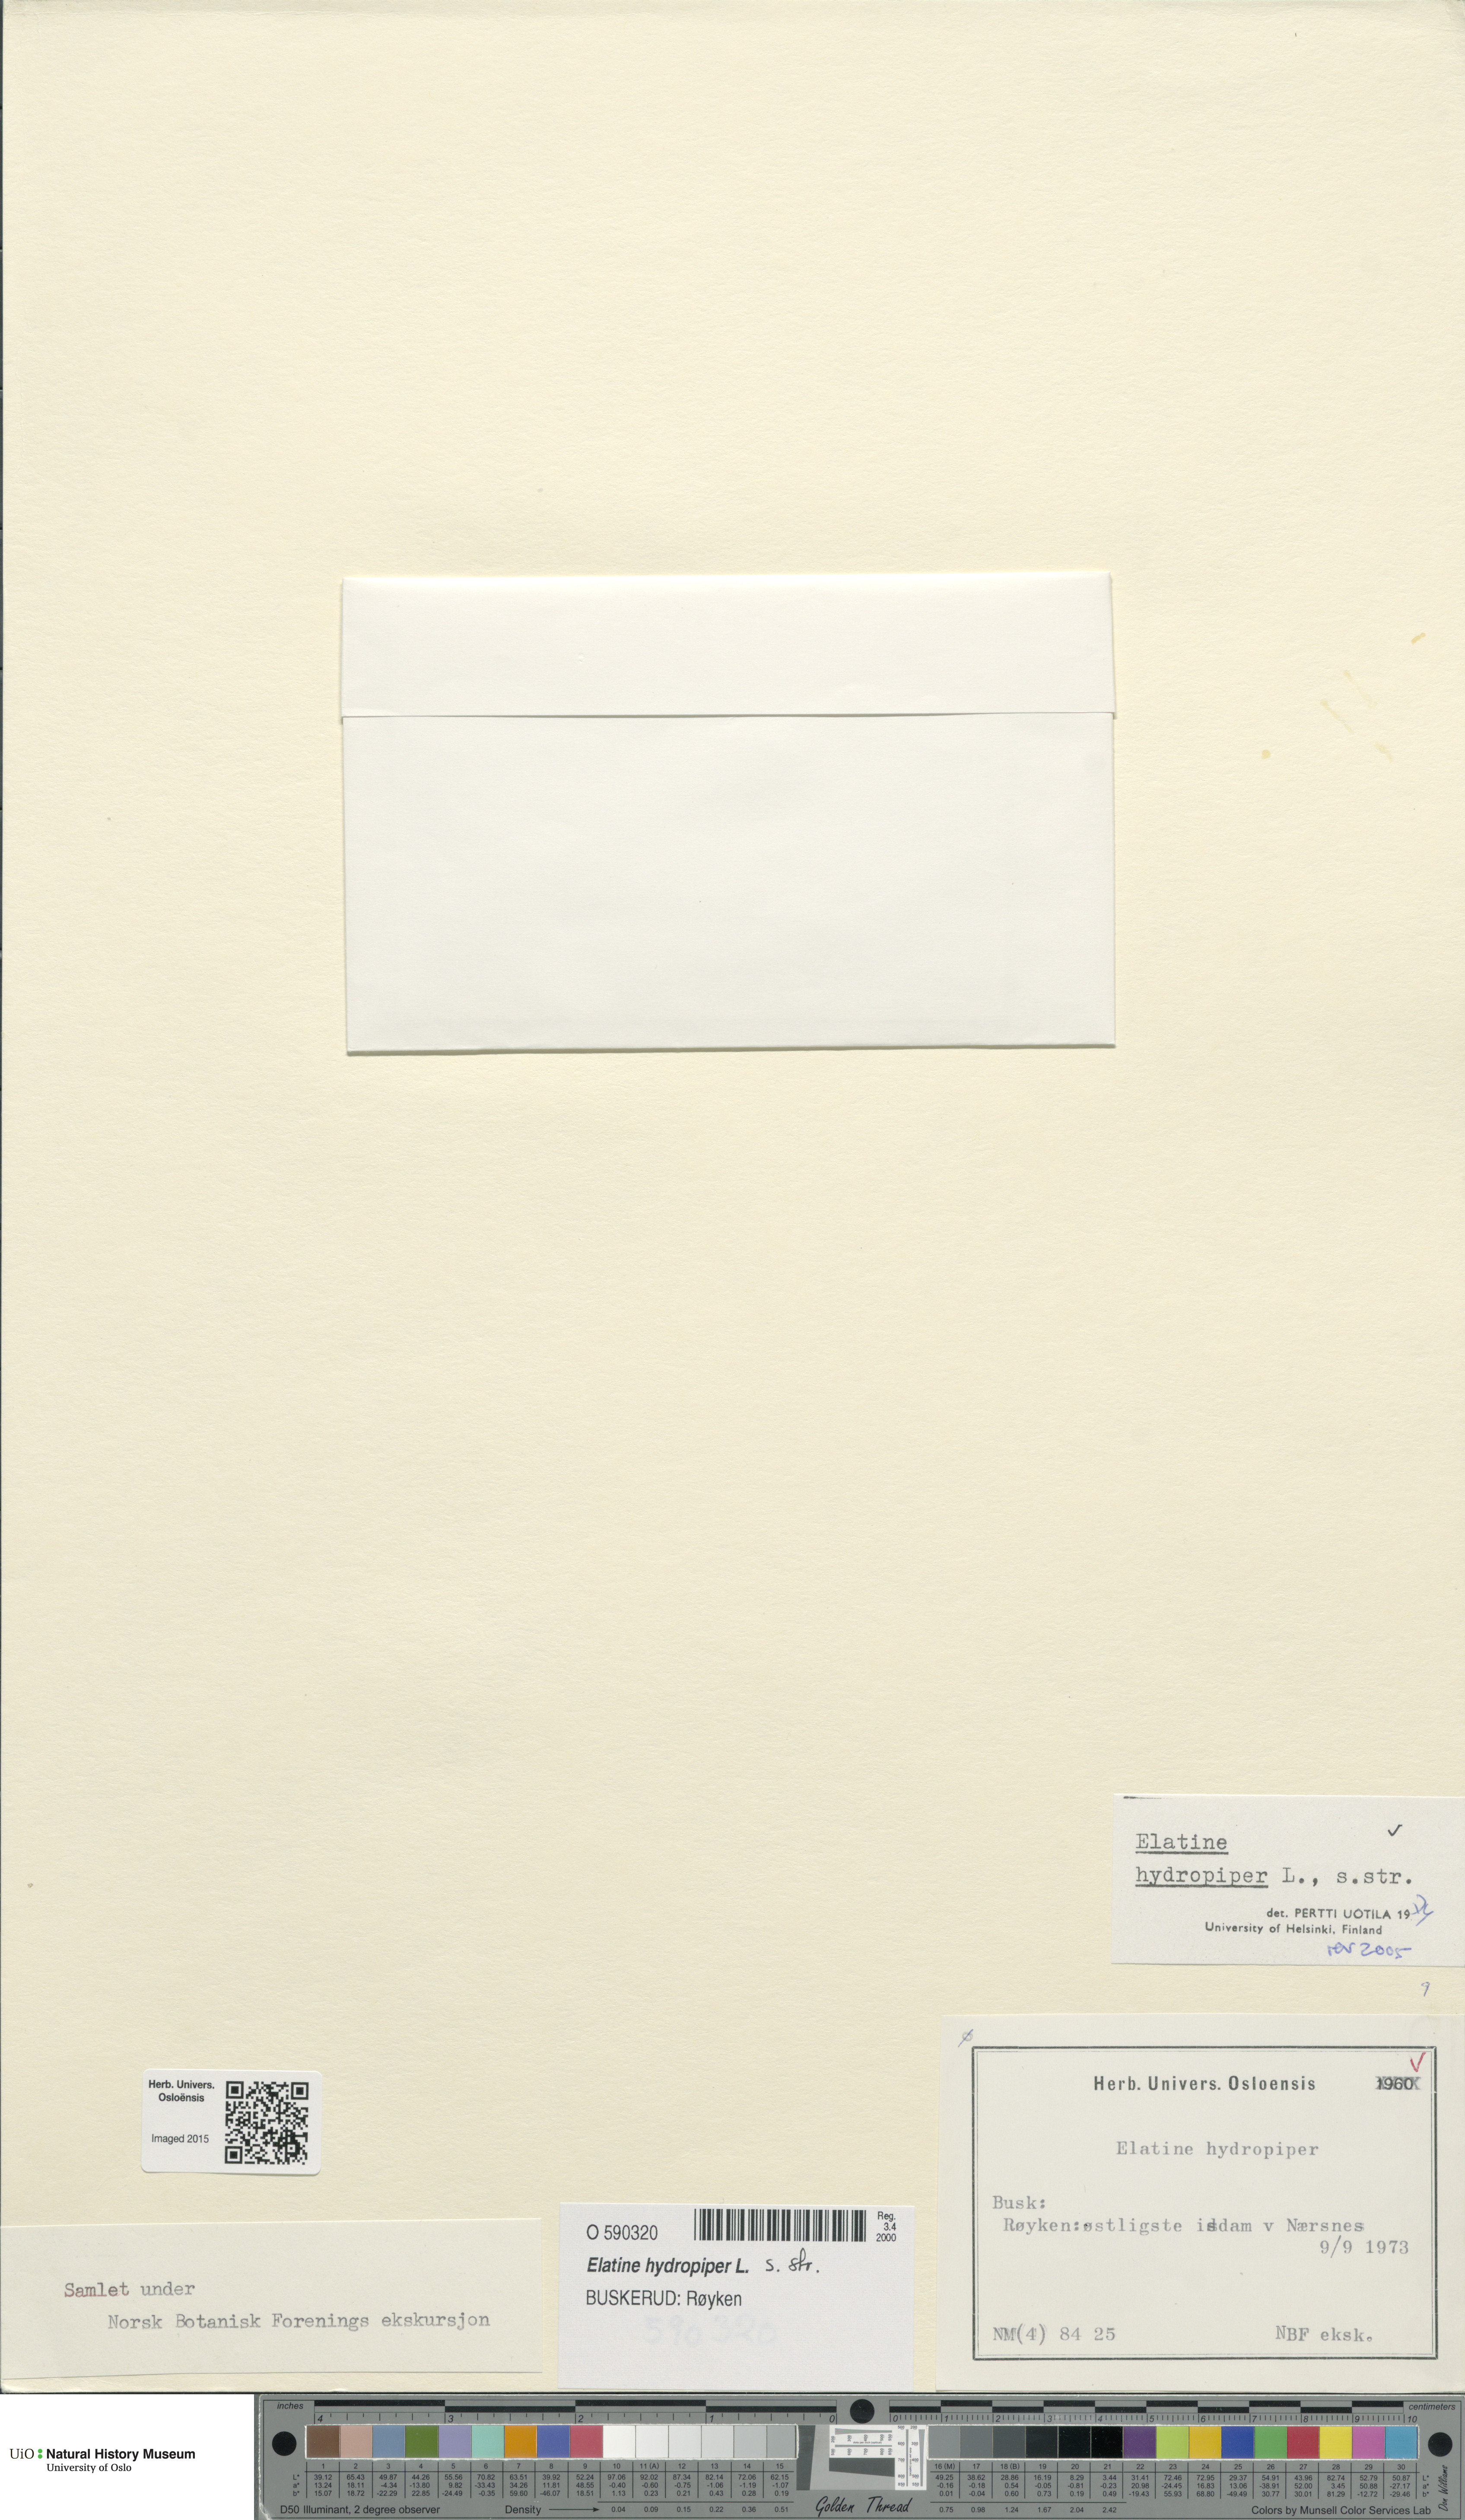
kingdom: Plantae
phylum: Tracheophyta
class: Magnoliopsida
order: Malpighiales
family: Elatinaceae
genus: Elatine
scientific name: Elatine hydropiper
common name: Eight-stamened waterwort
